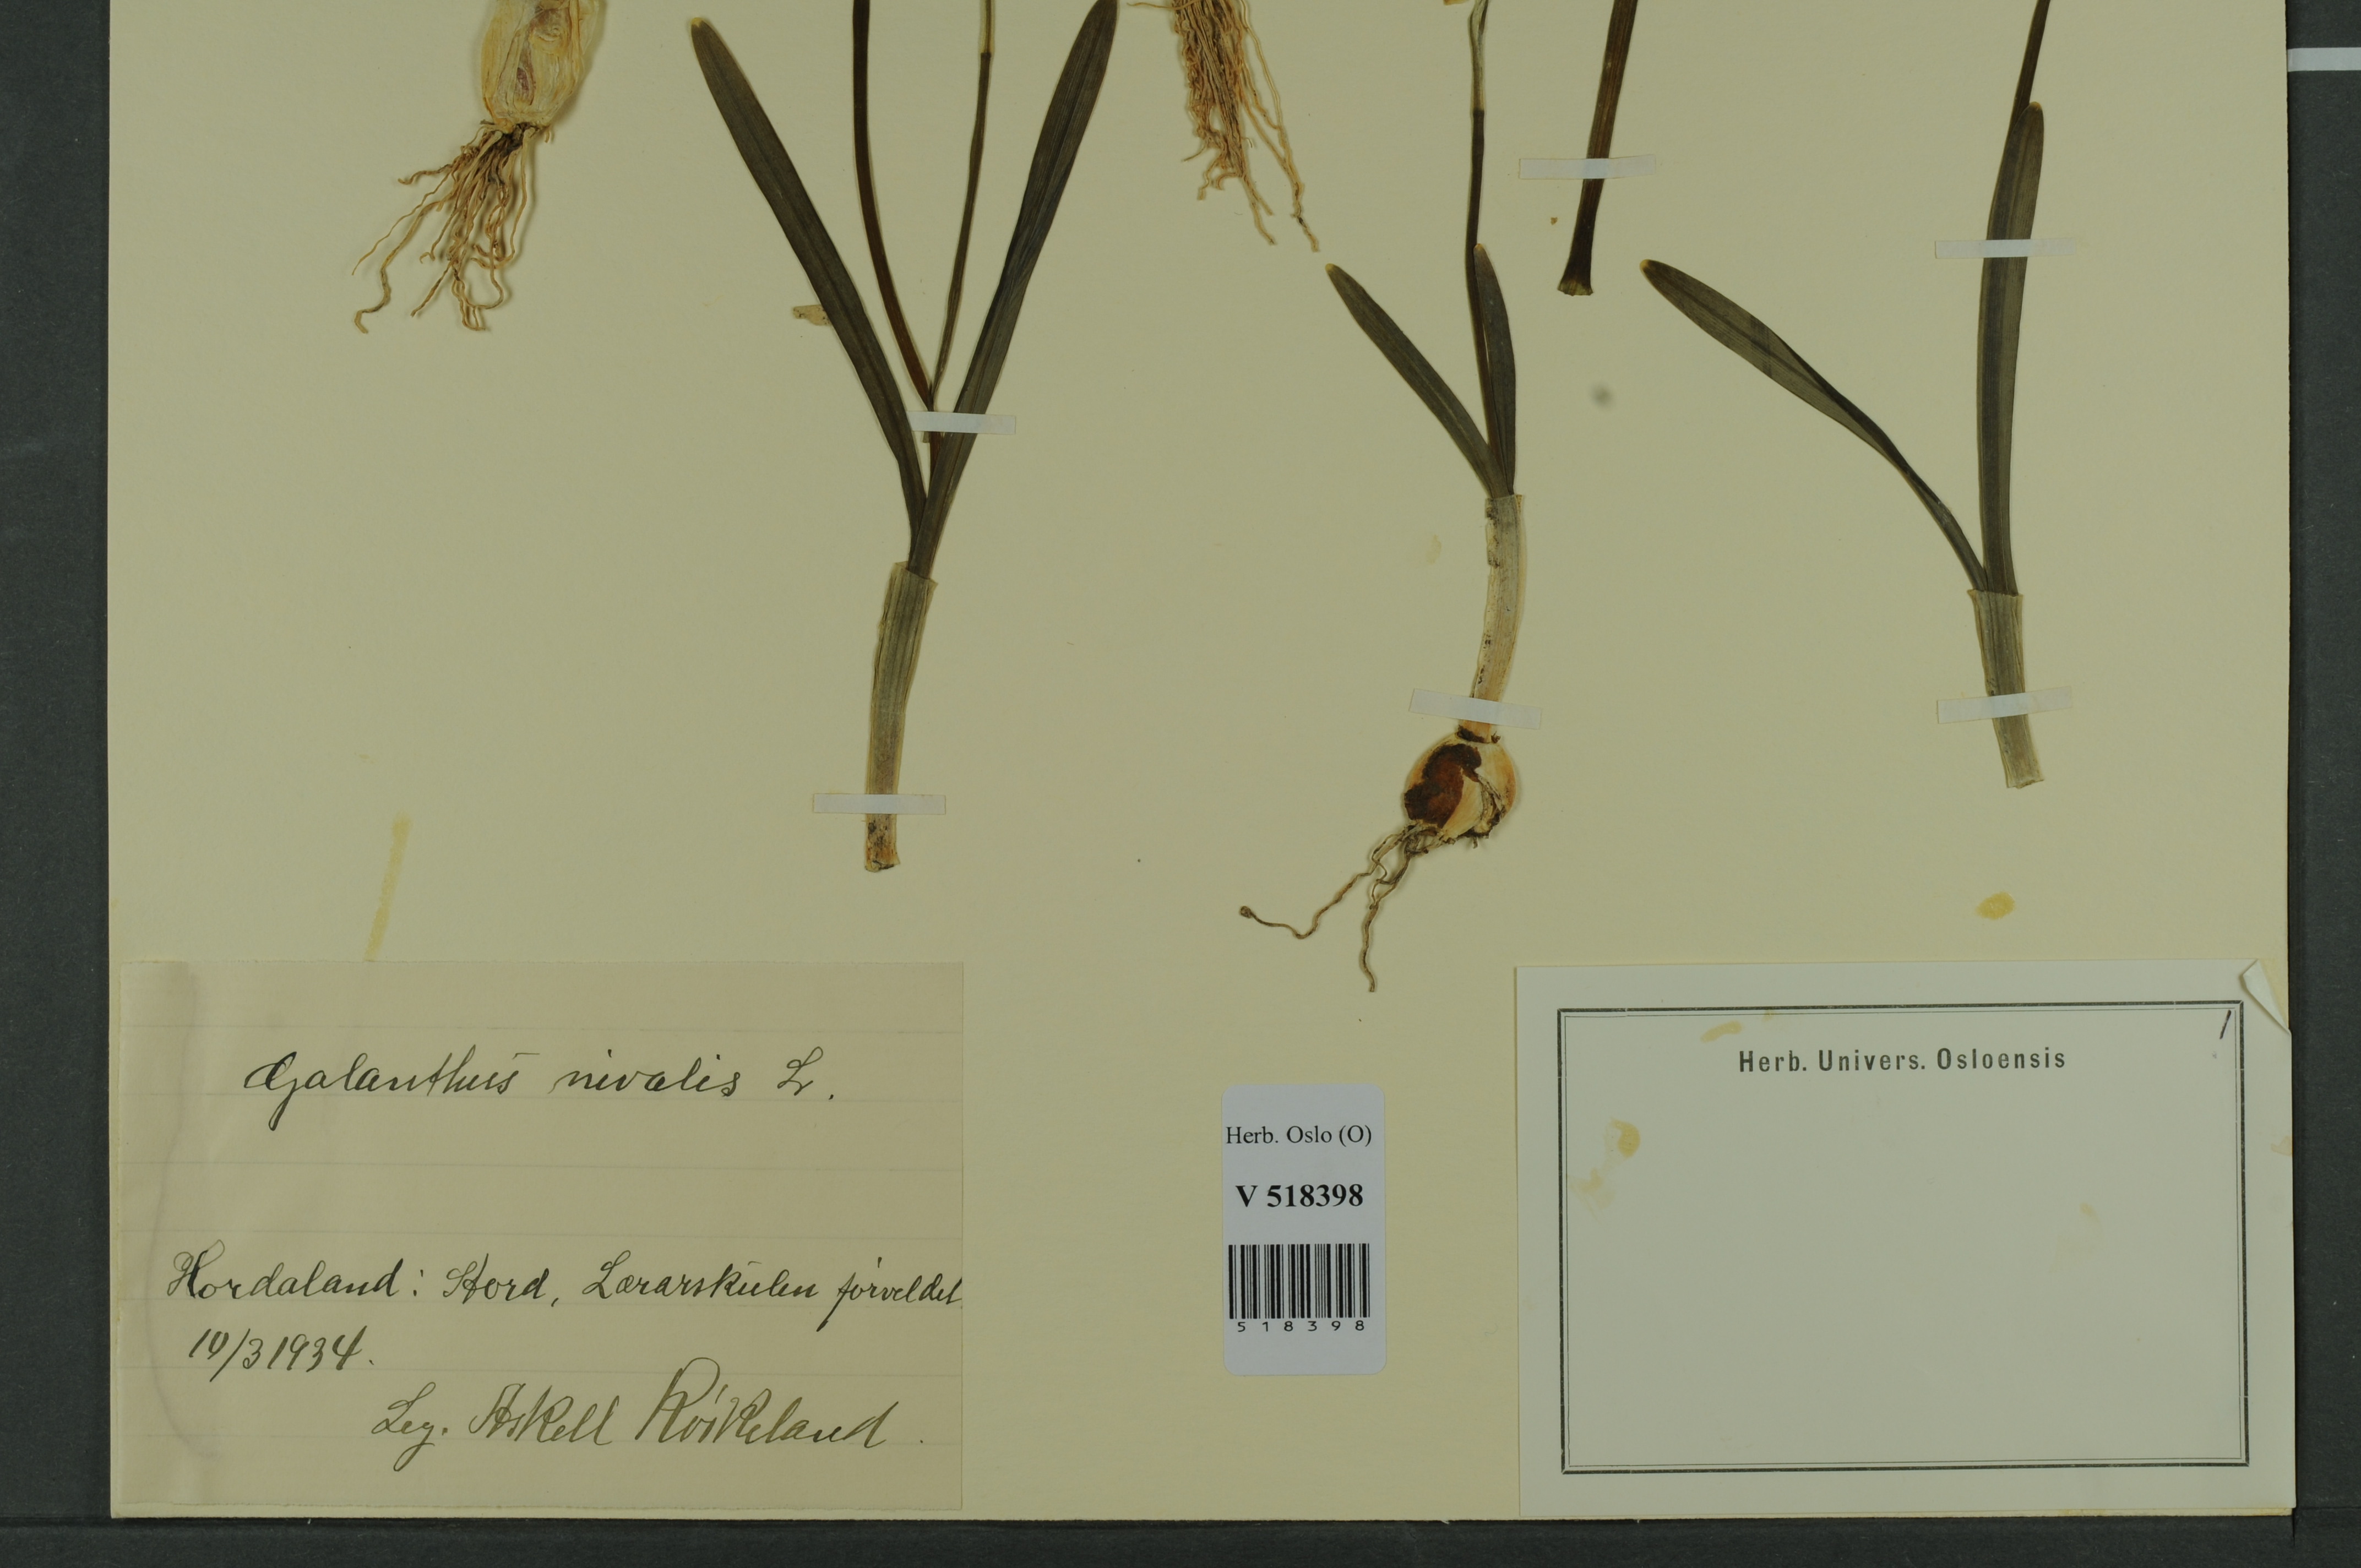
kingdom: Plantae
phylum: Tracheophyta
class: Liliopsida
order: Asparagales
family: Amaryllidaceae
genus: Galanthus
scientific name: Galanthus nivalis
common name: Snowdrop
